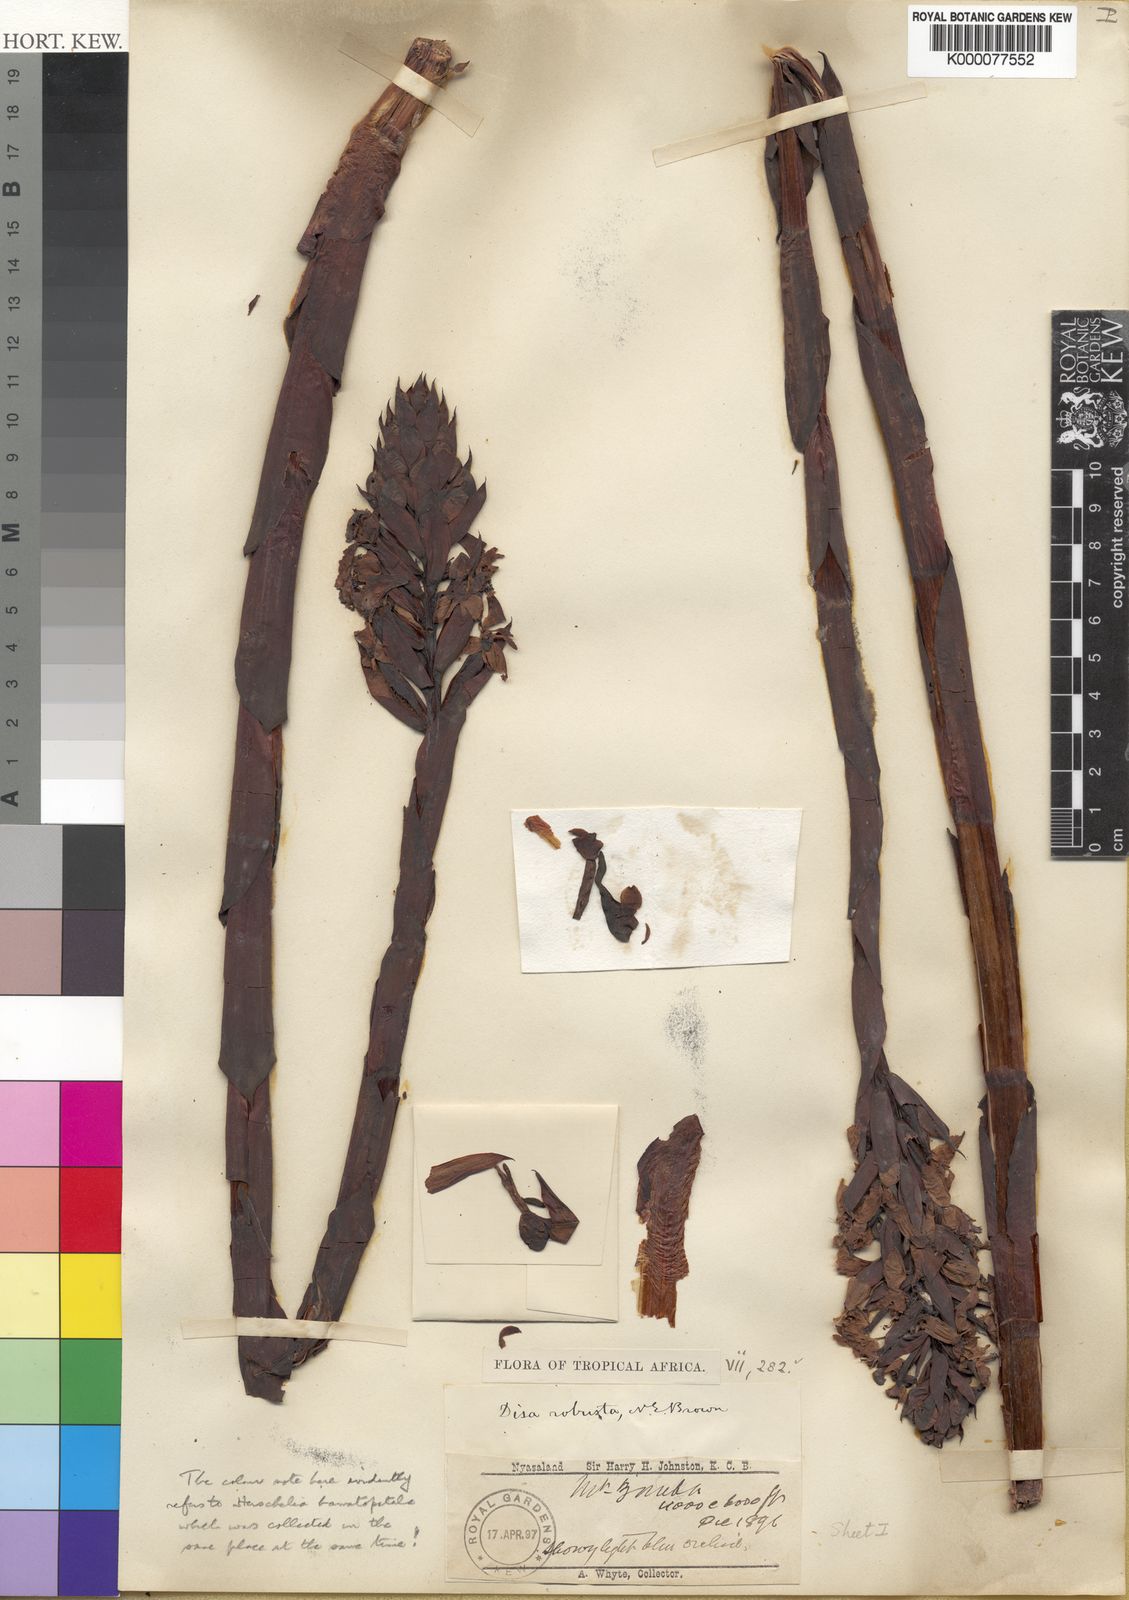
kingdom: Plantae
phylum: Tracheophyta
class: Liliopsida
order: Asparagales
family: Orchidaceae
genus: Disa
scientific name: Disa robusta
